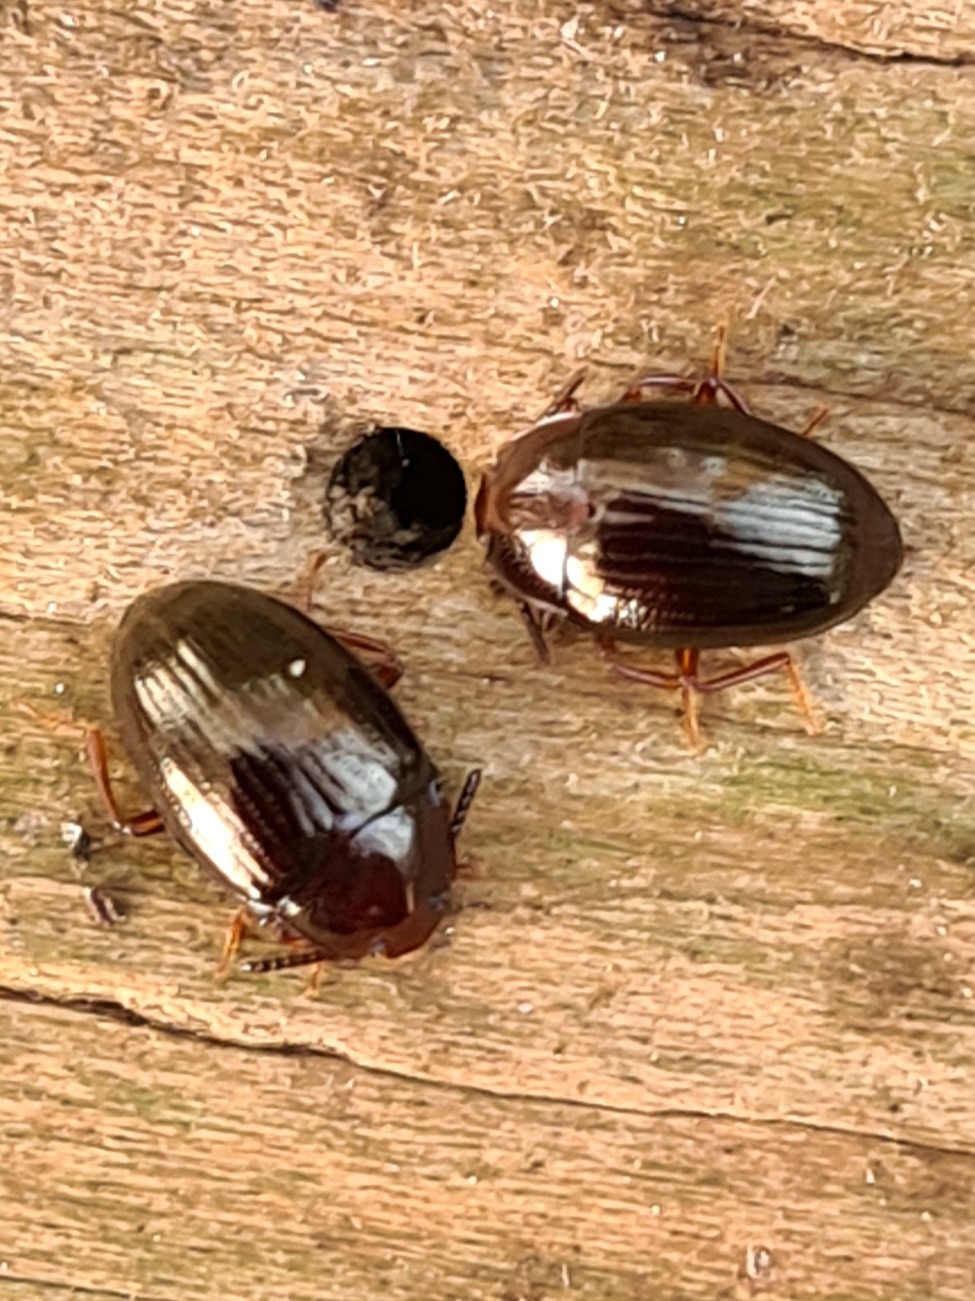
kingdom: Animalia
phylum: Arthropoda
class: Insecta
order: Coleoptera
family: Tenebrionidae
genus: Blapstinus
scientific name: Blapstinus metallicus
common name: Metalskyggebille
